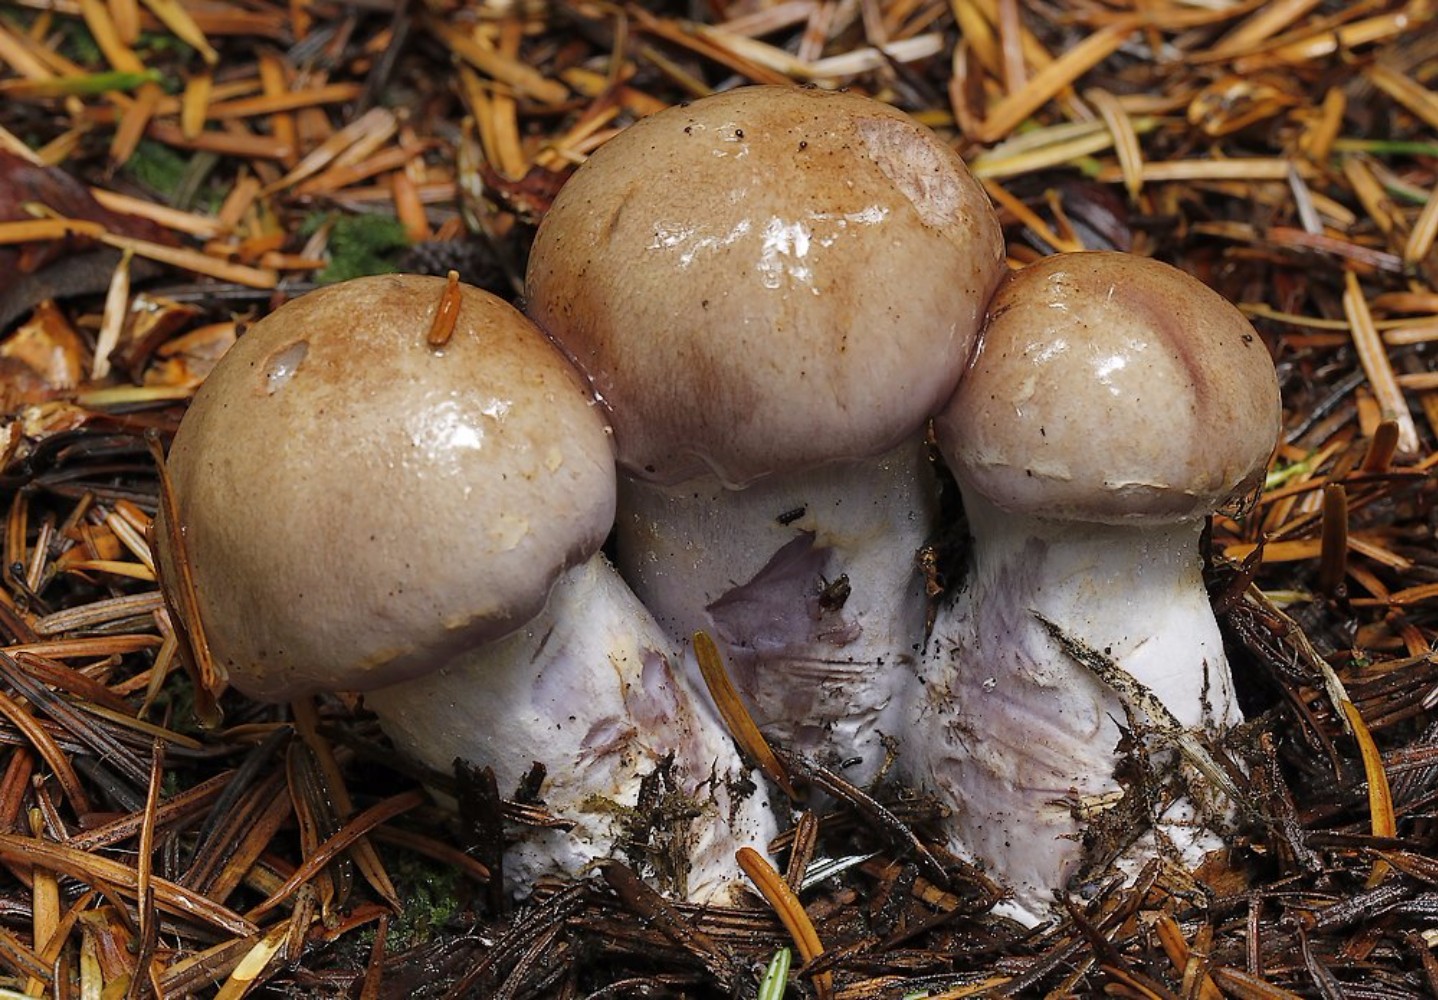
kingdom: Fungi
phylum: Basidiomycota
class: Agaricomycetes
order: Agaricales
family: Cortinariaceae
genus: Cortinarius
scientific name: Cortinarius
